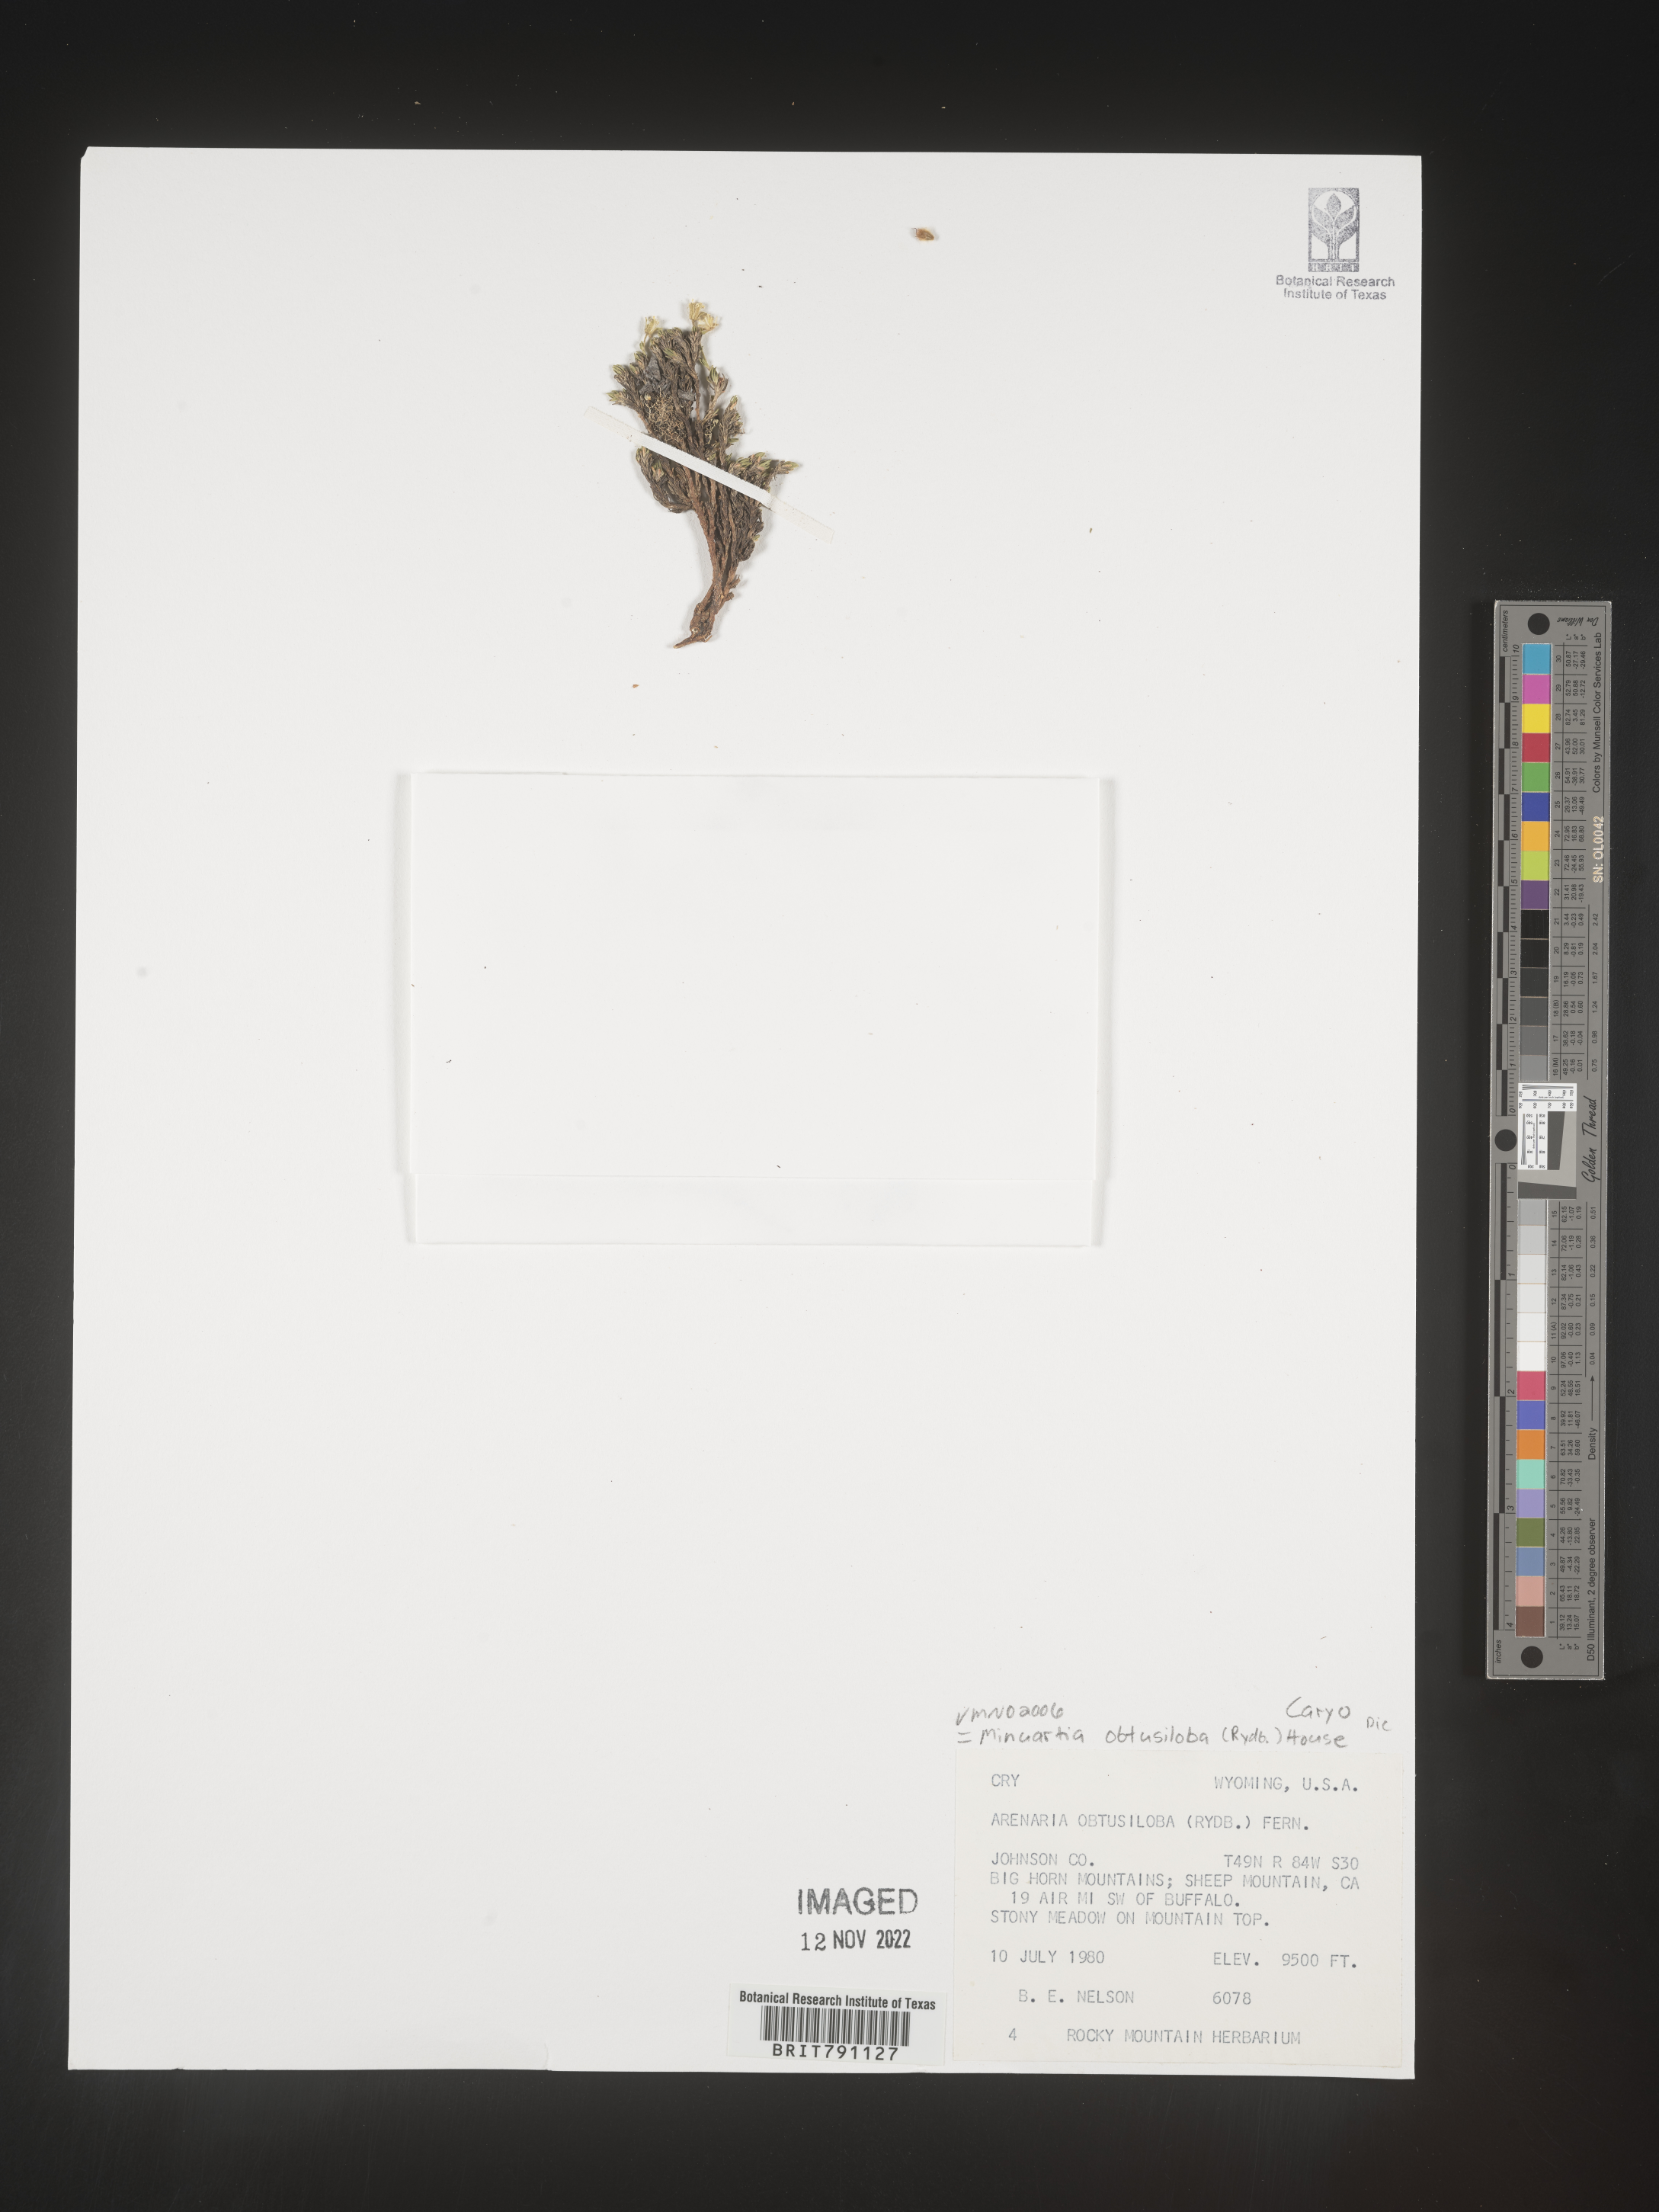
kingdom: Plantae
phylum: Tracheophyta
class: Magnoliopsida
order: Caryophyllales
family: Caryophyllaceae
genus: Cherleria
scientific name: Cherleria obtusiloba
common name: Alpine stitchwort
